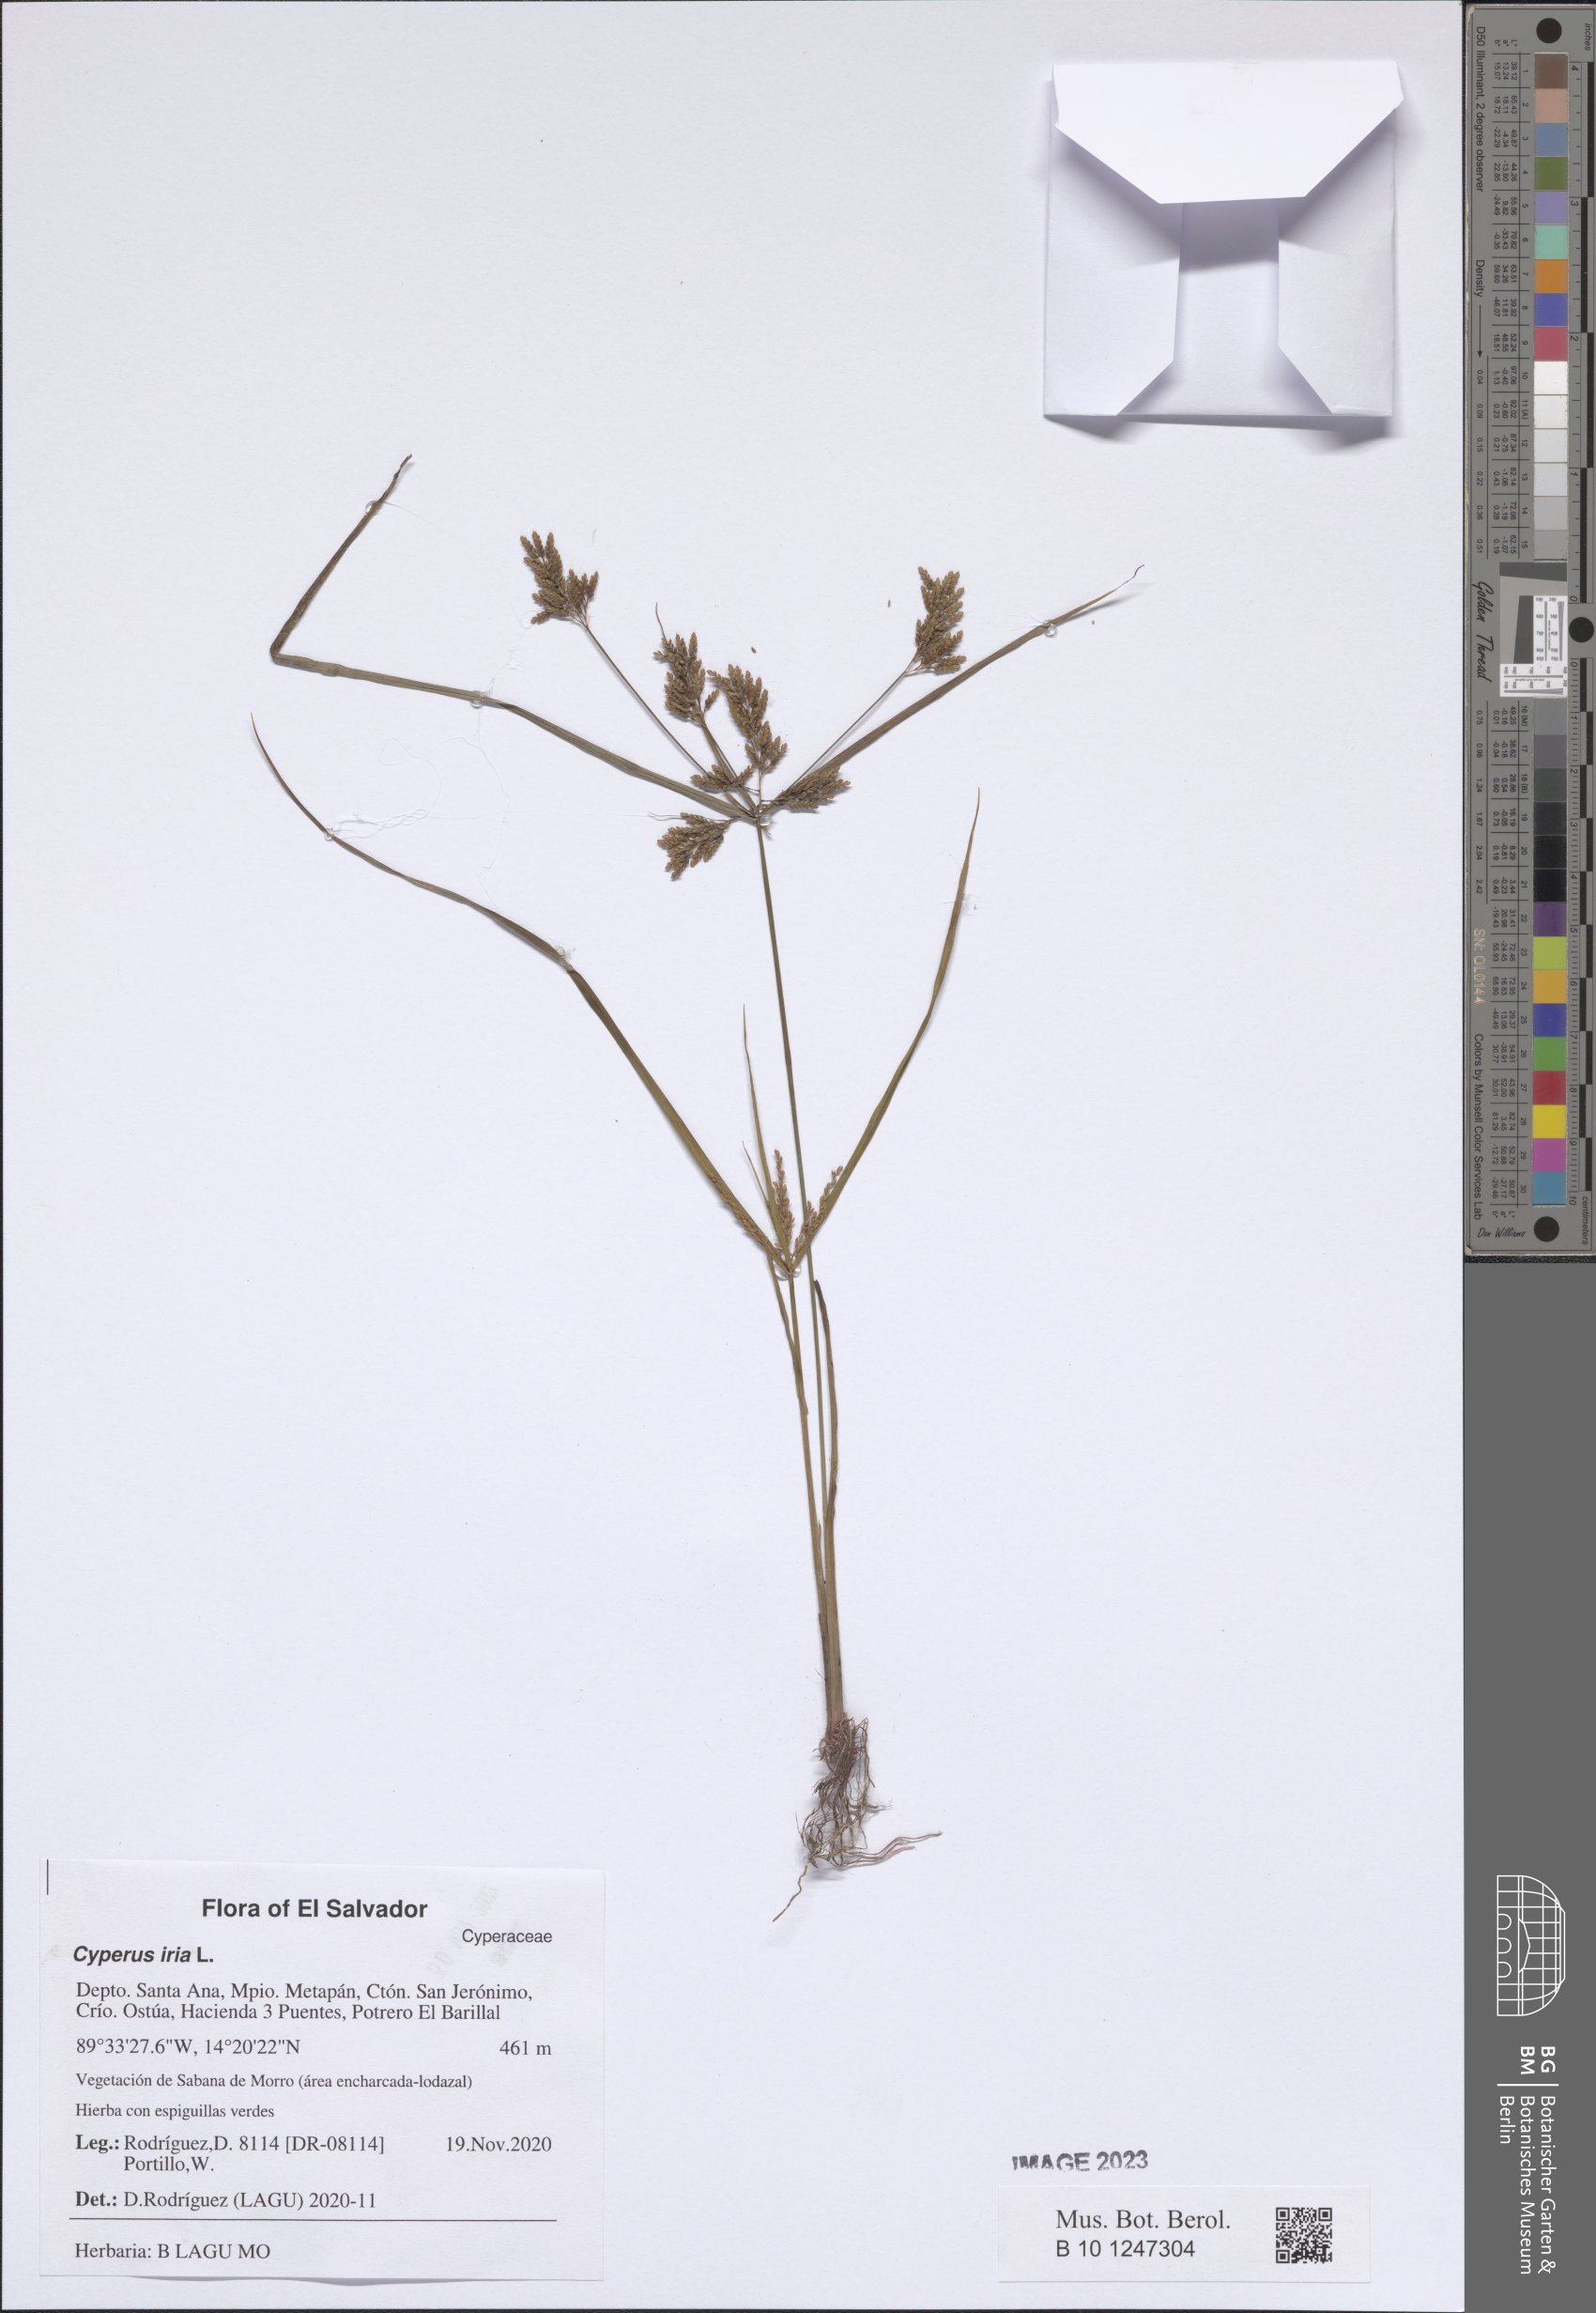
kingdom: Plantae
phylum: Tracheophyta
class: Liliopsida
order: Poales
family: Cyperaceae
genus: Cyperus
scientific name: Cyperus iria
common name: Ricefield flatsedge
